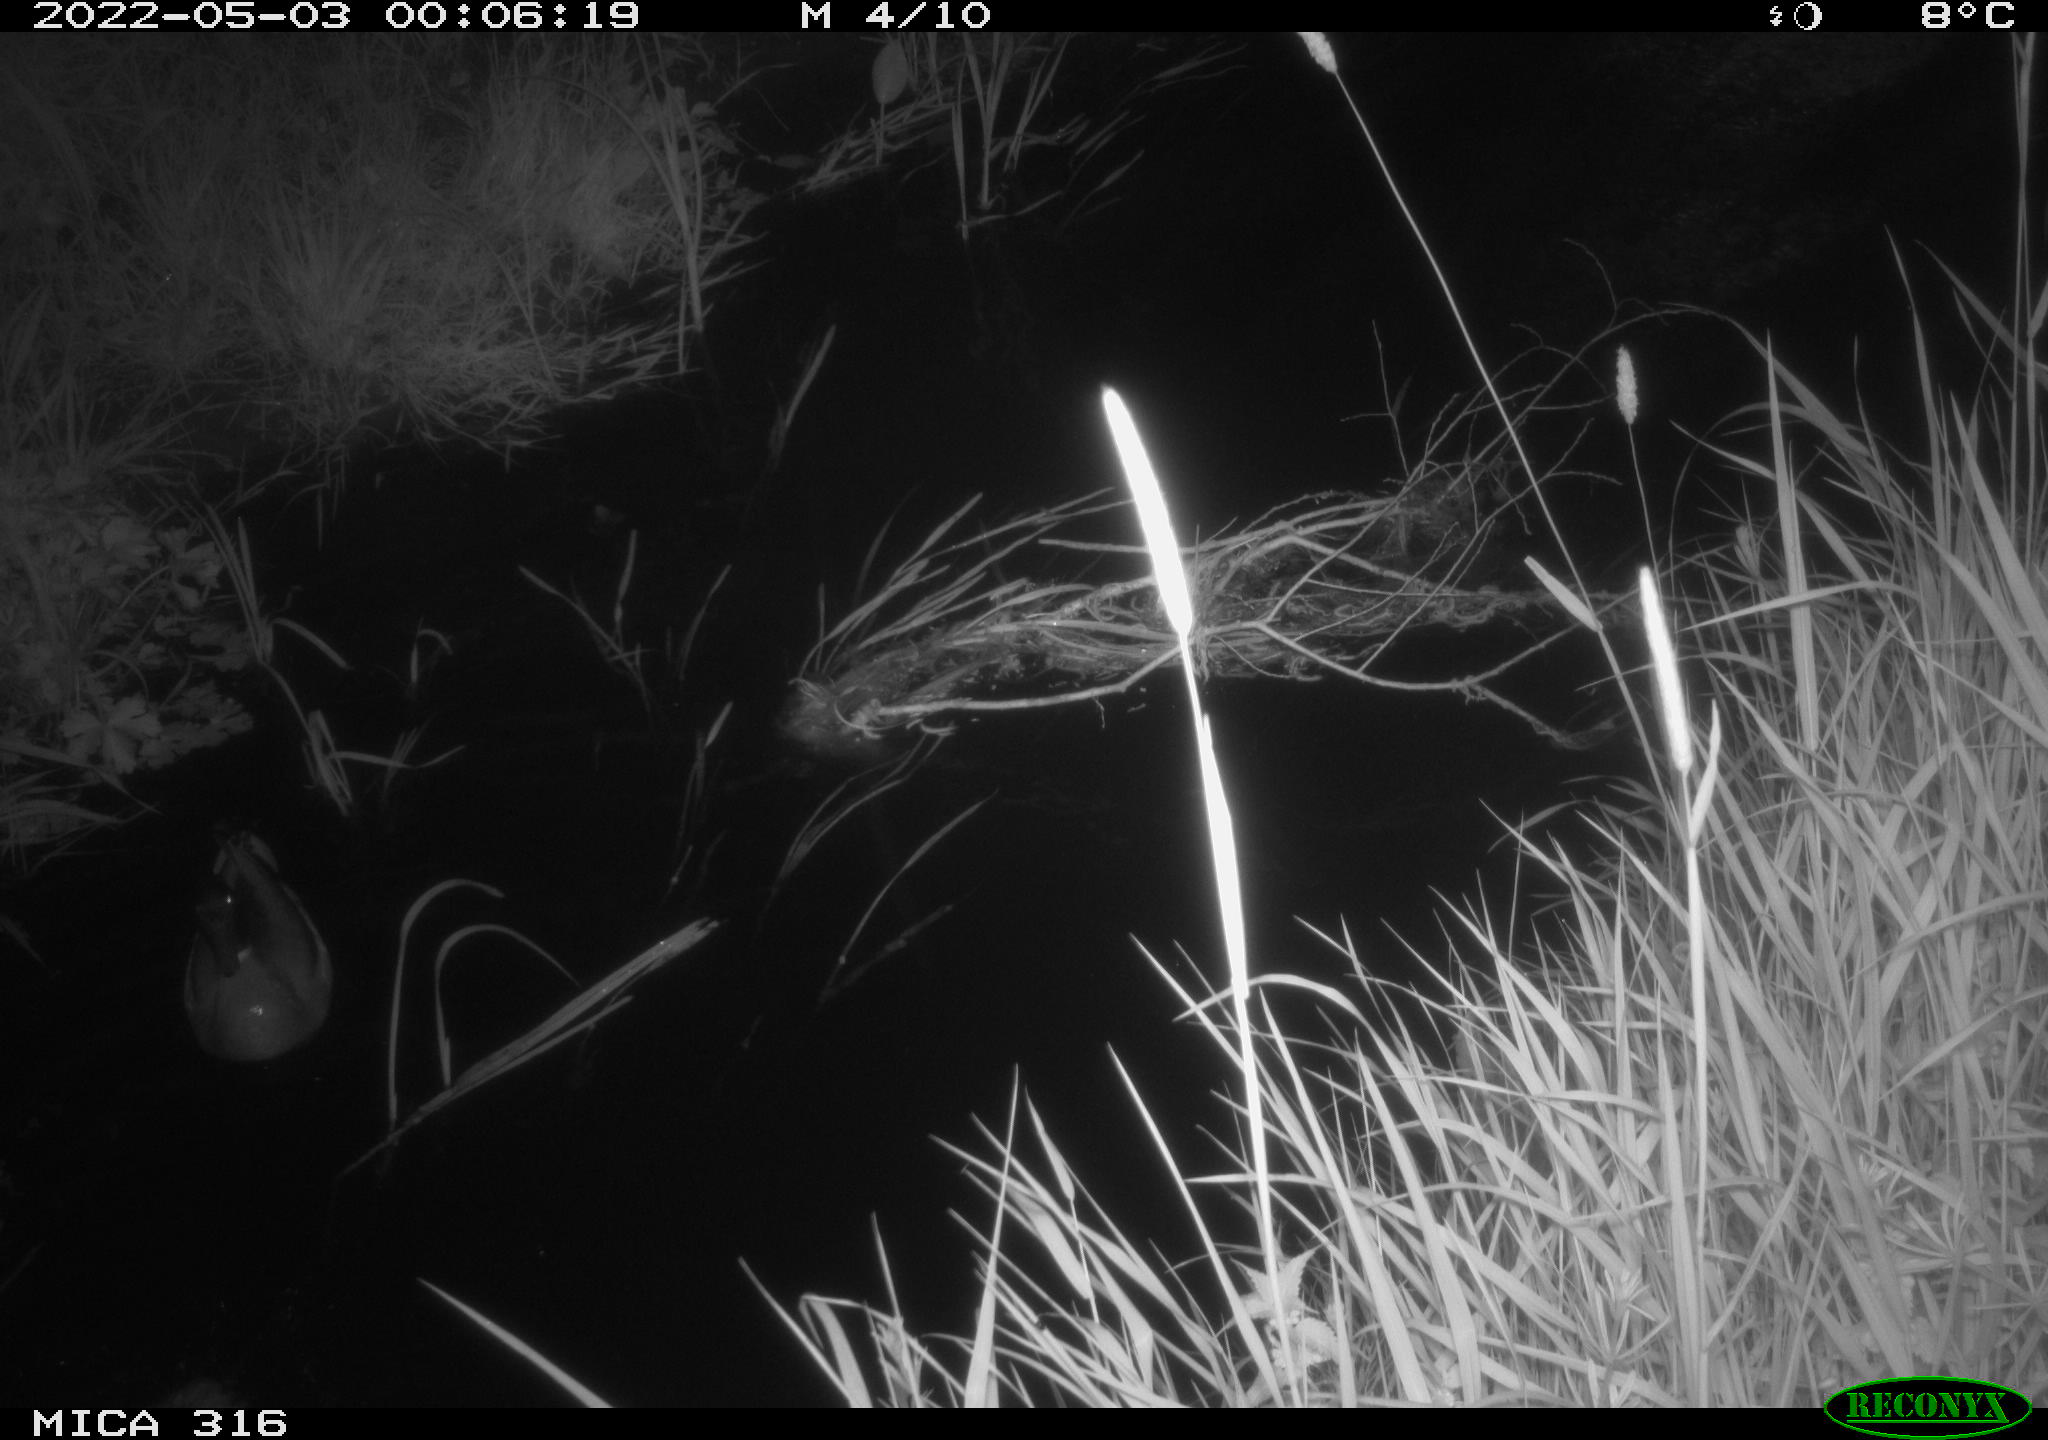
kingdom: Animalia
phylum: Chordata
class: Aves
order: Anseriformes
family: Anatidae
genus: Anas
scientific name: Anas platyrhynchos
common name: Mallard
